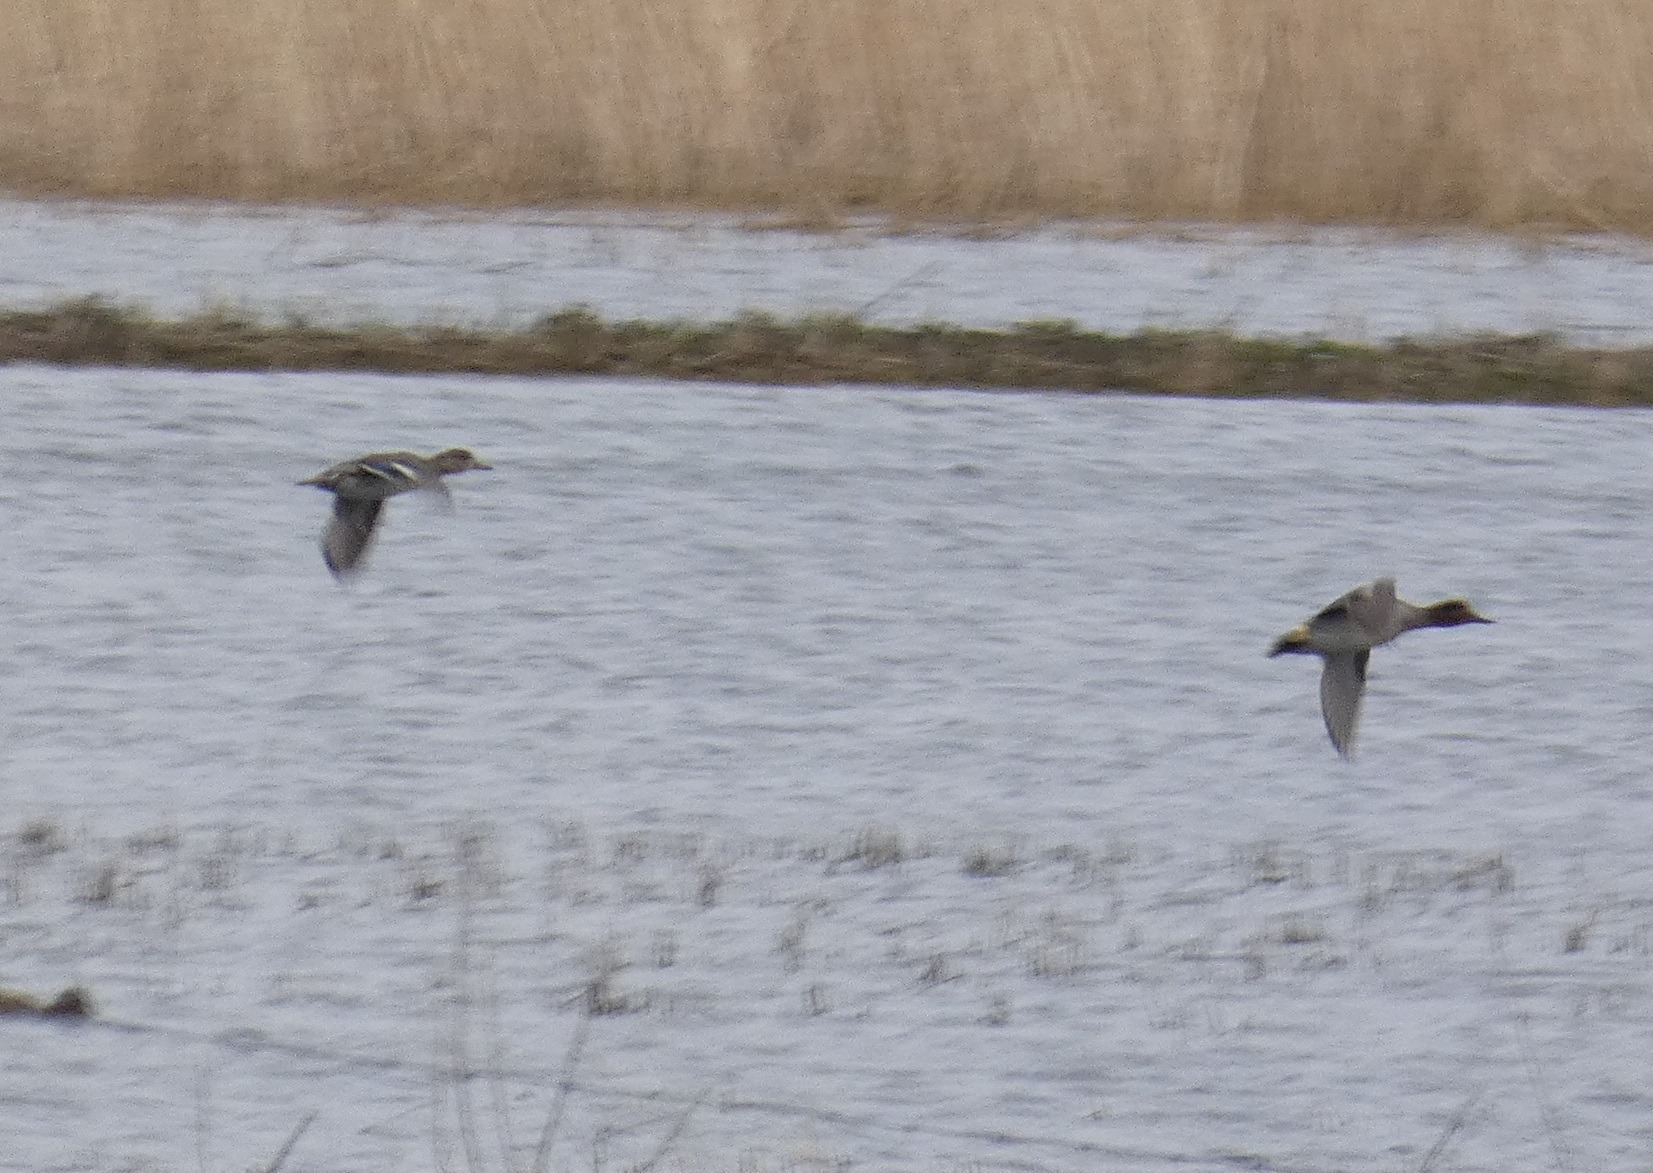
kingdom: Animalia
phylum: Chordata
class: Aves
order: Anseriformes
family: Anatidae
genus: Anas
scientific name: Anas crecca
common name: Krikand
